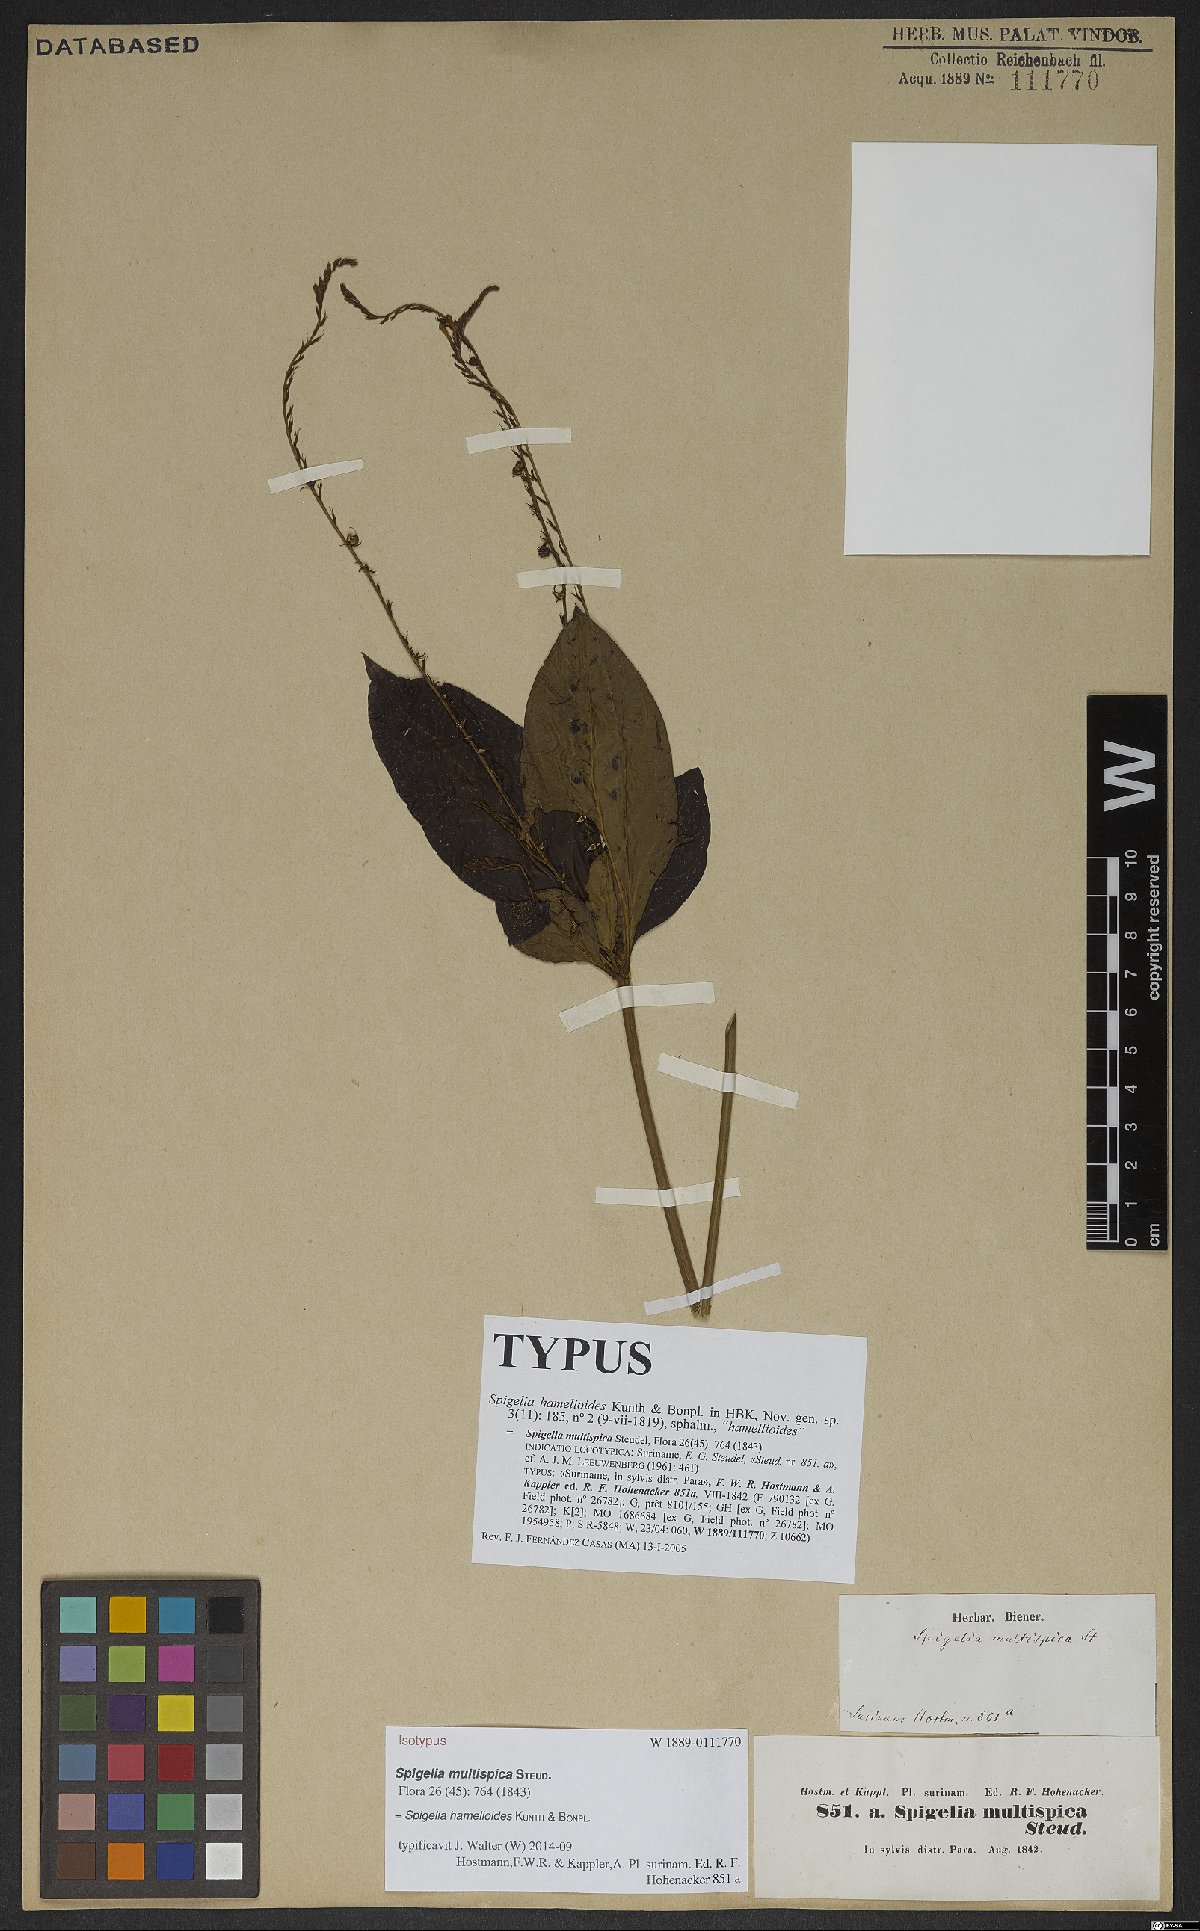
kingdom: Plantae
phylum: Tracheophyta
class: Magnoliopsida
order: Gentianales
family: Loganiaceae
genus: Spigelia
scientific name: Spigelia hamellioides
